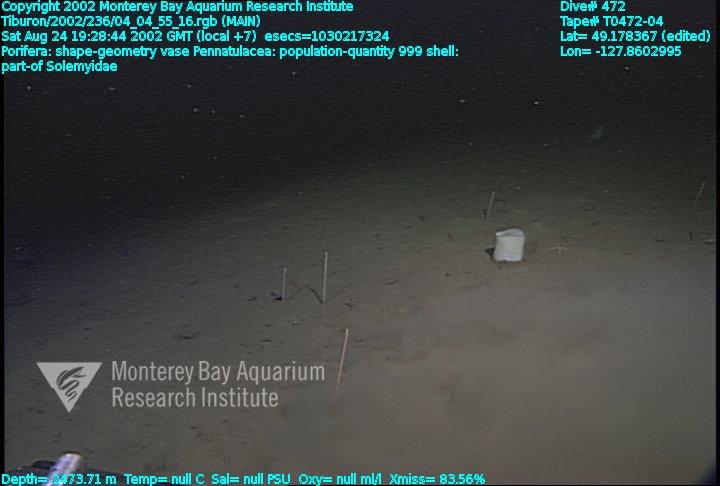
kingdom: Animalia
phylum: Porifera
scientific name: Porifera
